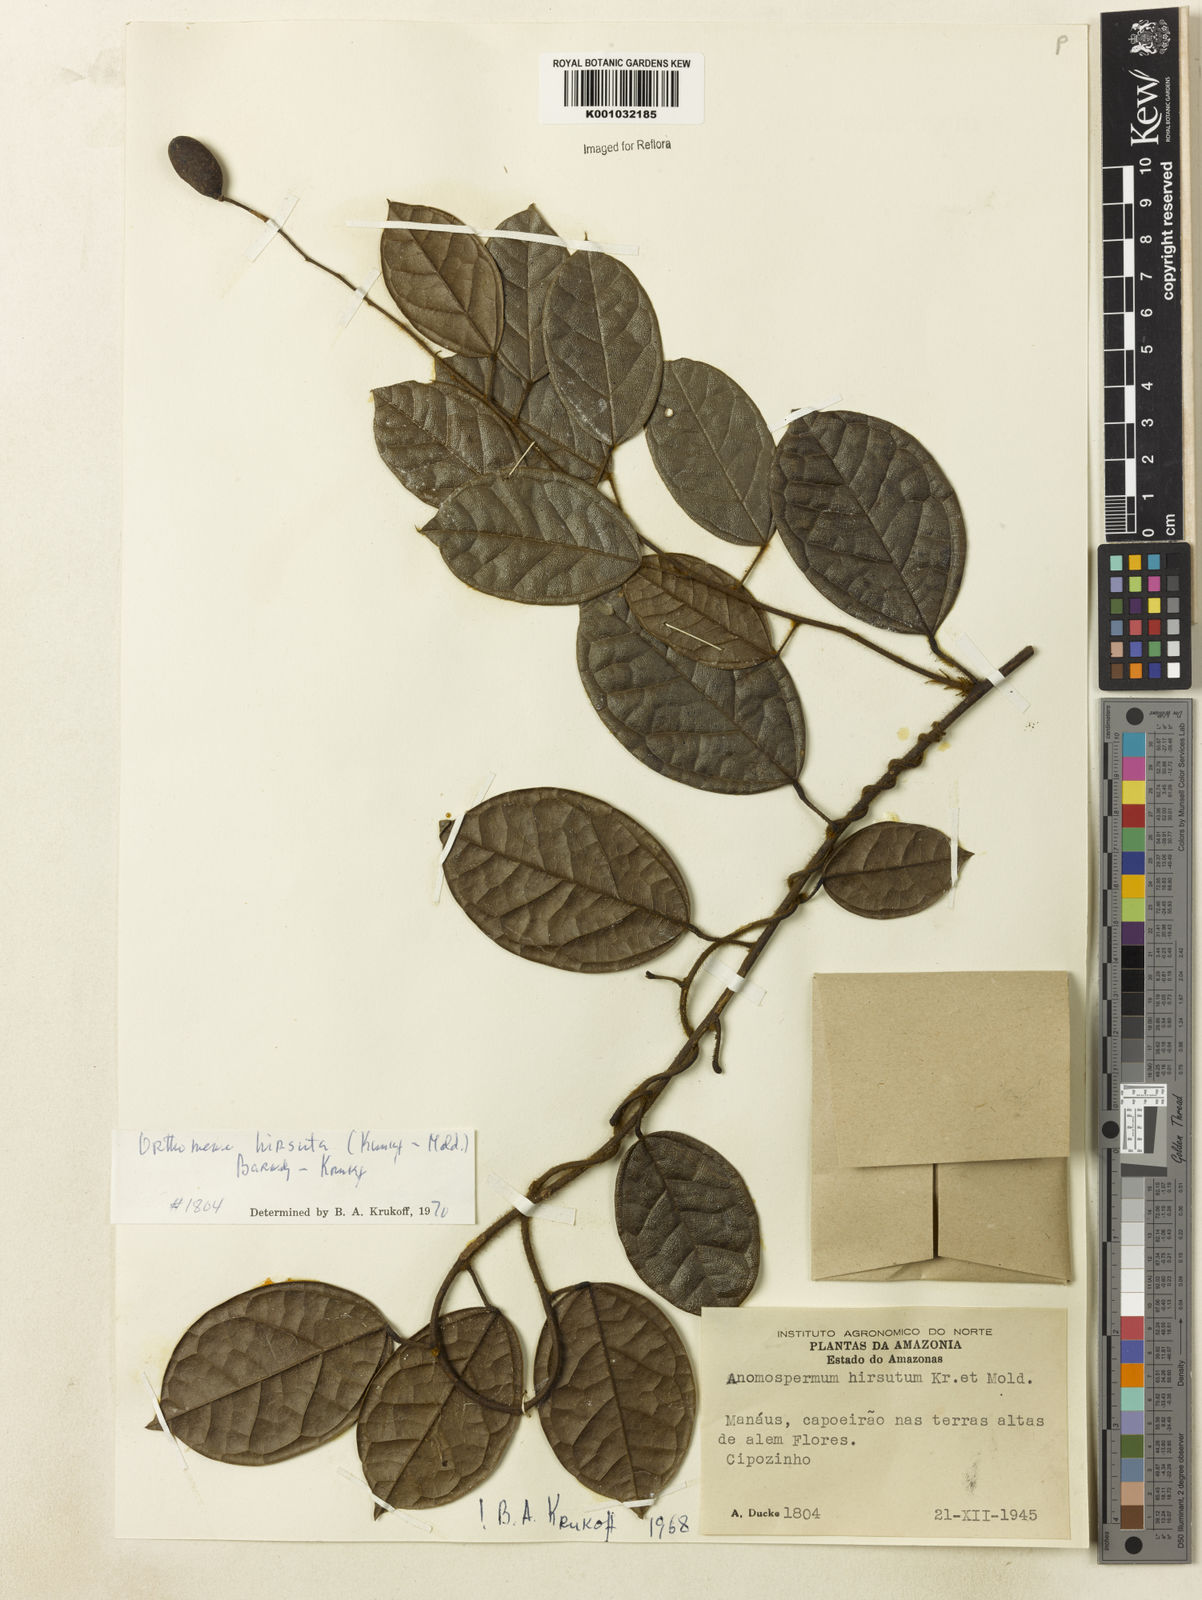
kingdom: Plantae
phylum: Tracheophyta
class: Magnoliopsida
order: Ranunculales
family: Menispermaceae
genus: Orthomene
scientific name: Orthomene hirsuta
